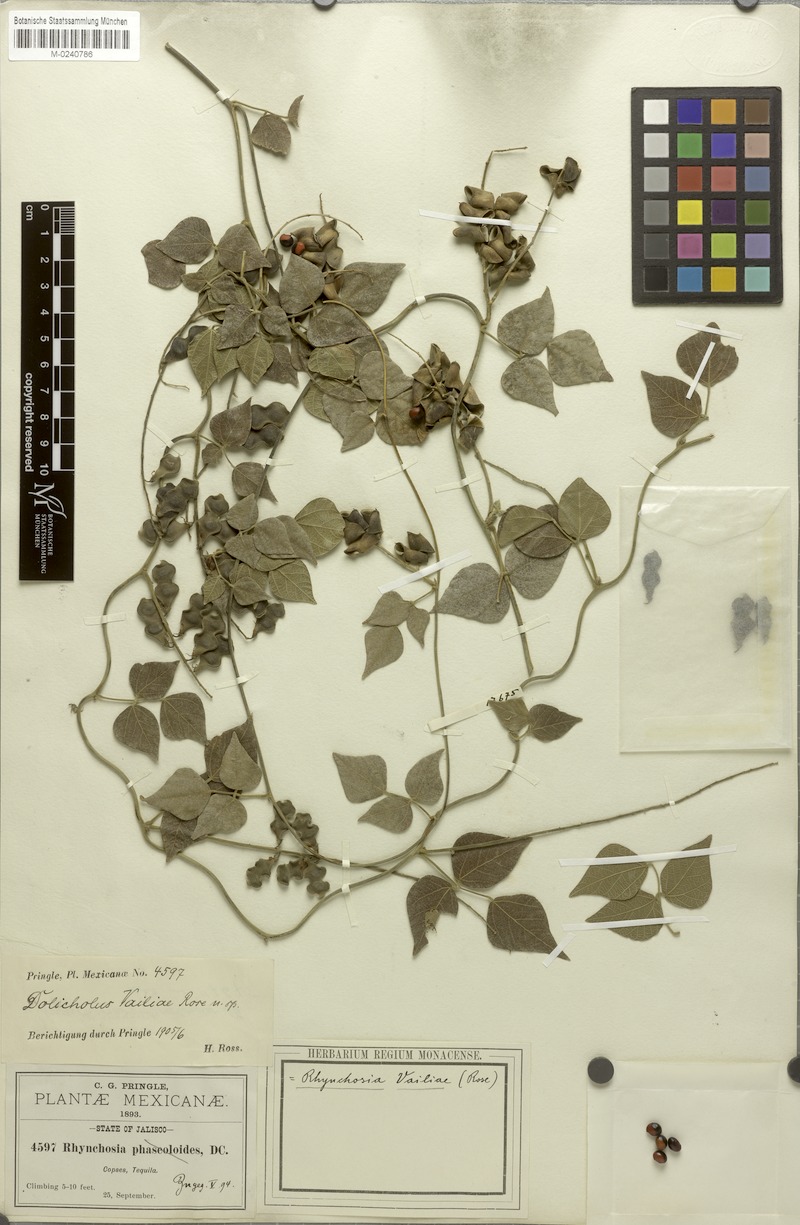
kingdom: Plantae
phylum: Tracheophyta
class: Magnoliopsida
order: Fabales
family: Fabaceae
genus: Rhynchosia
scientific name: Rhynchosia precatoria
